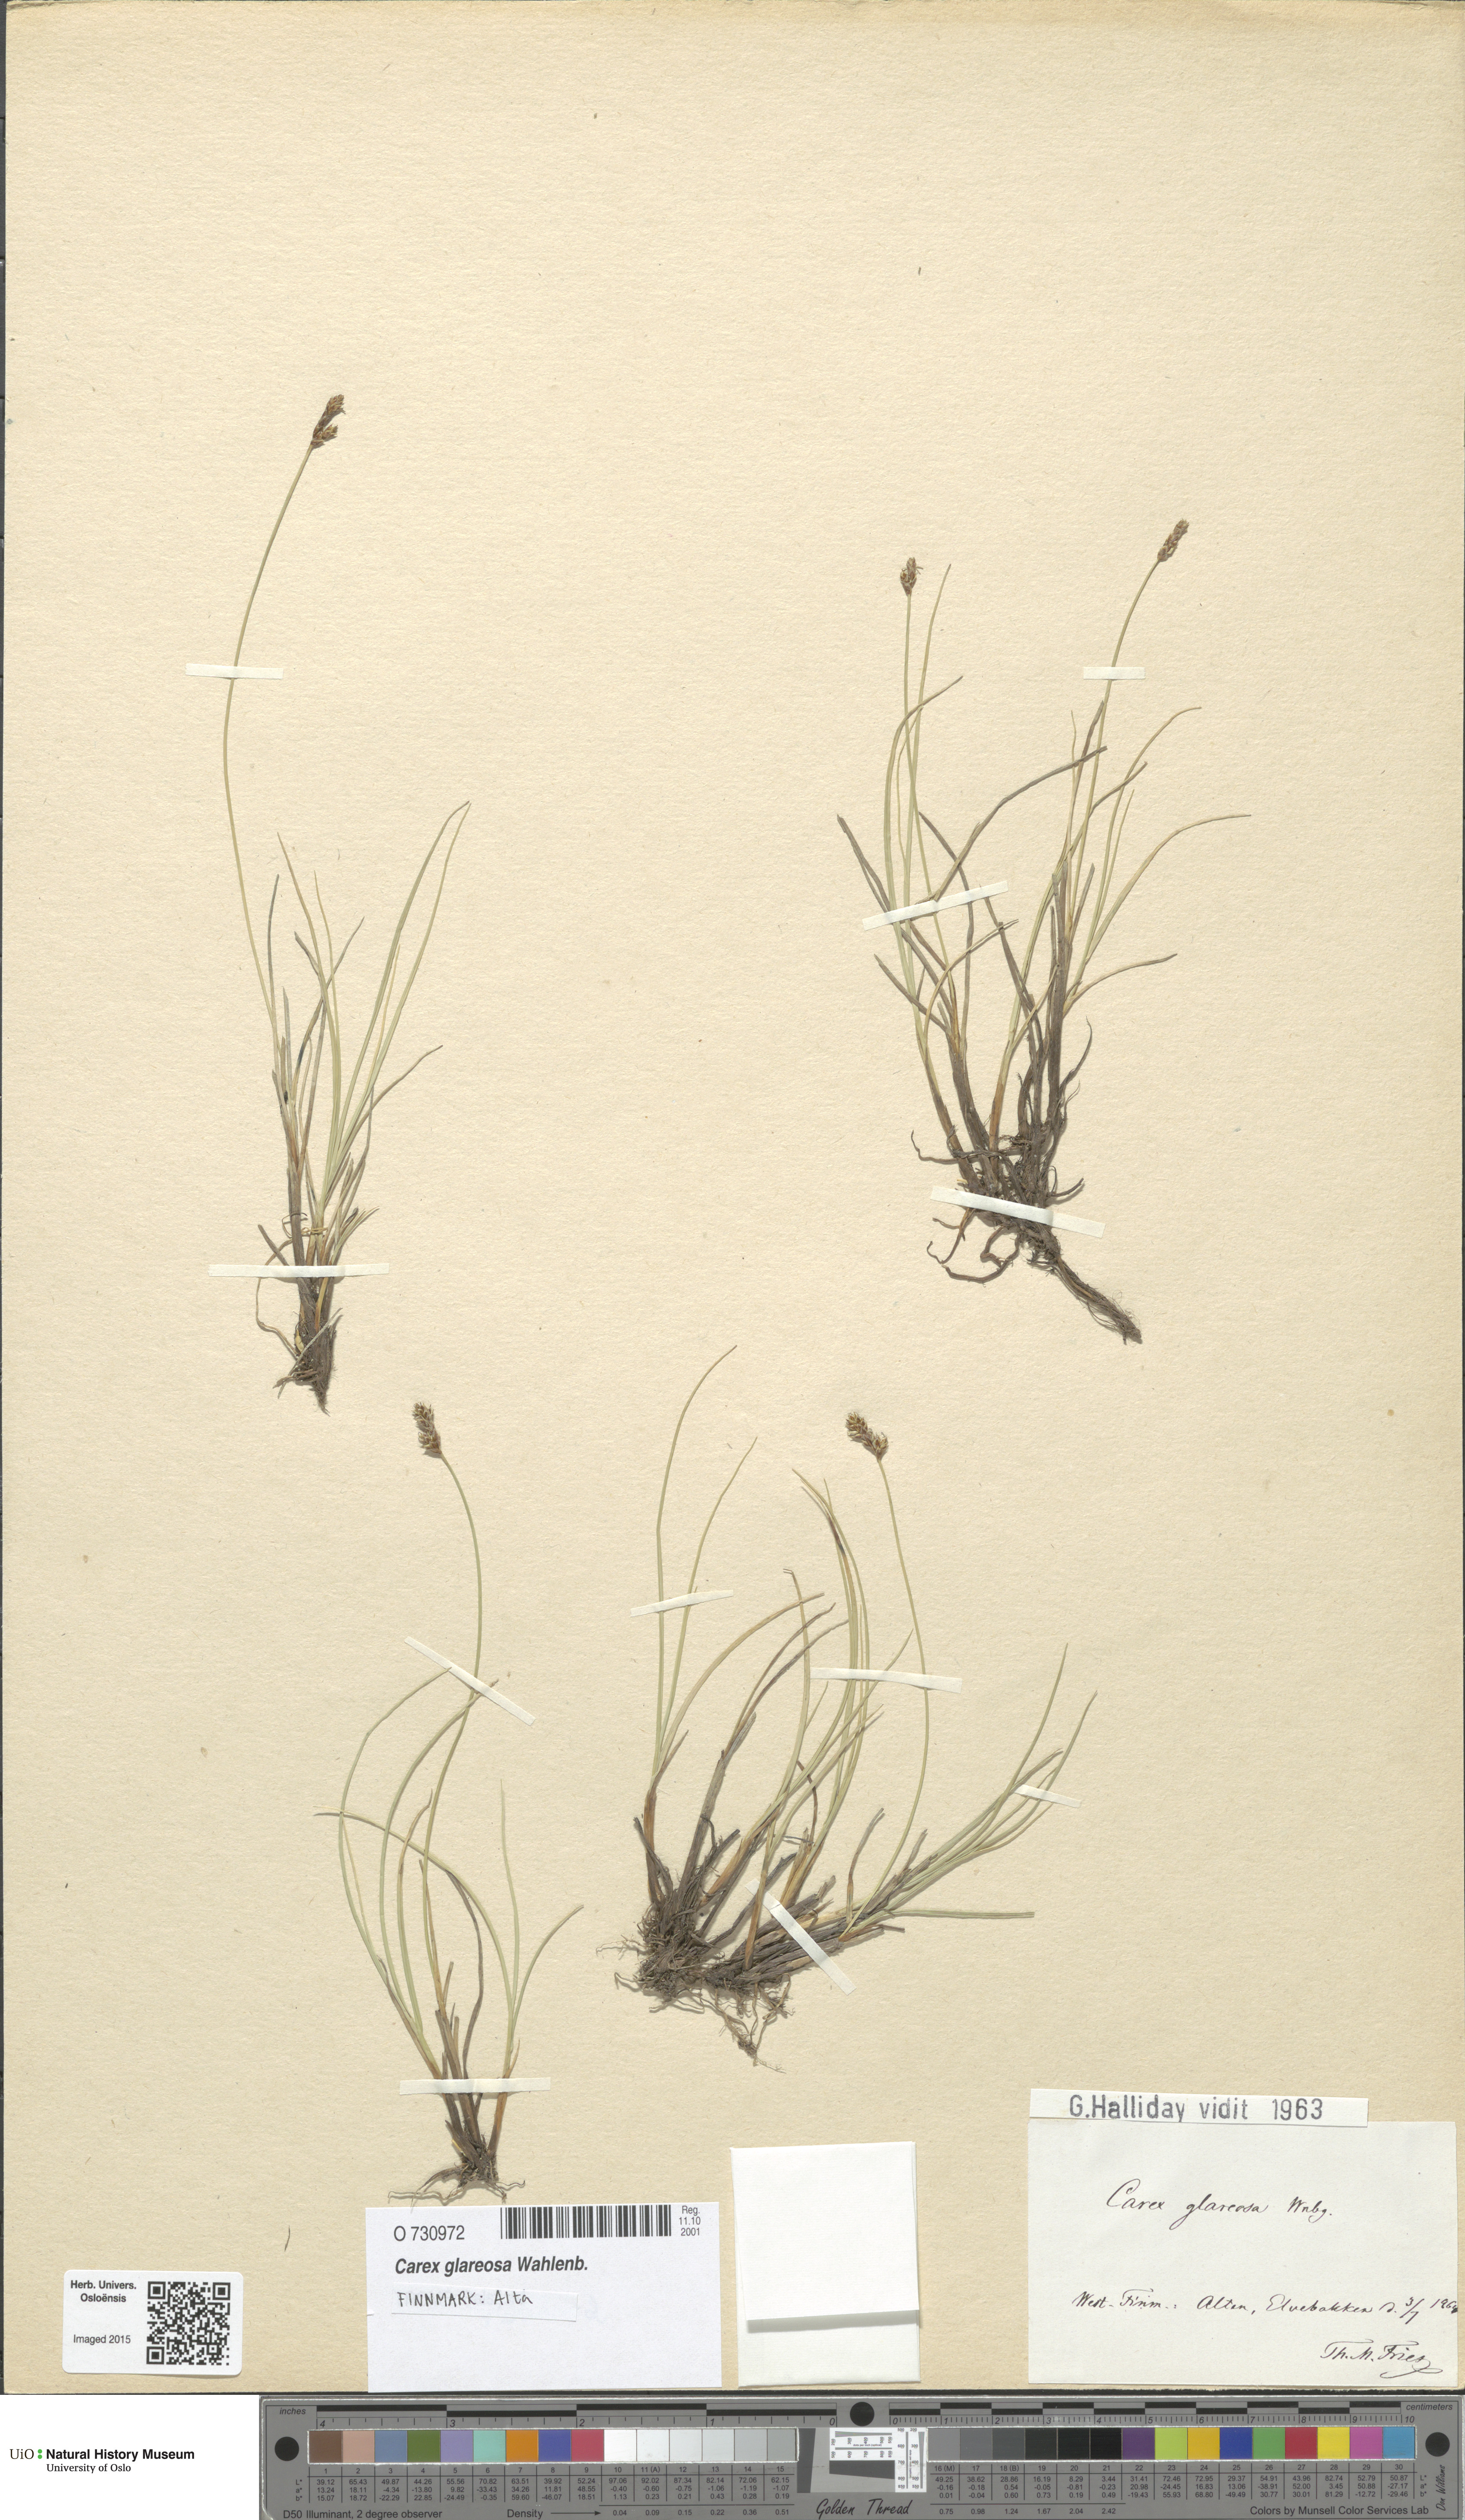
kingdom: Plantae
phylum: Tracheophyta
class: Liliopsida
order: Poales
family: Cyperaceae
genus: Carex
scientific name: Carex glareosa
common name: Clustered sedge
